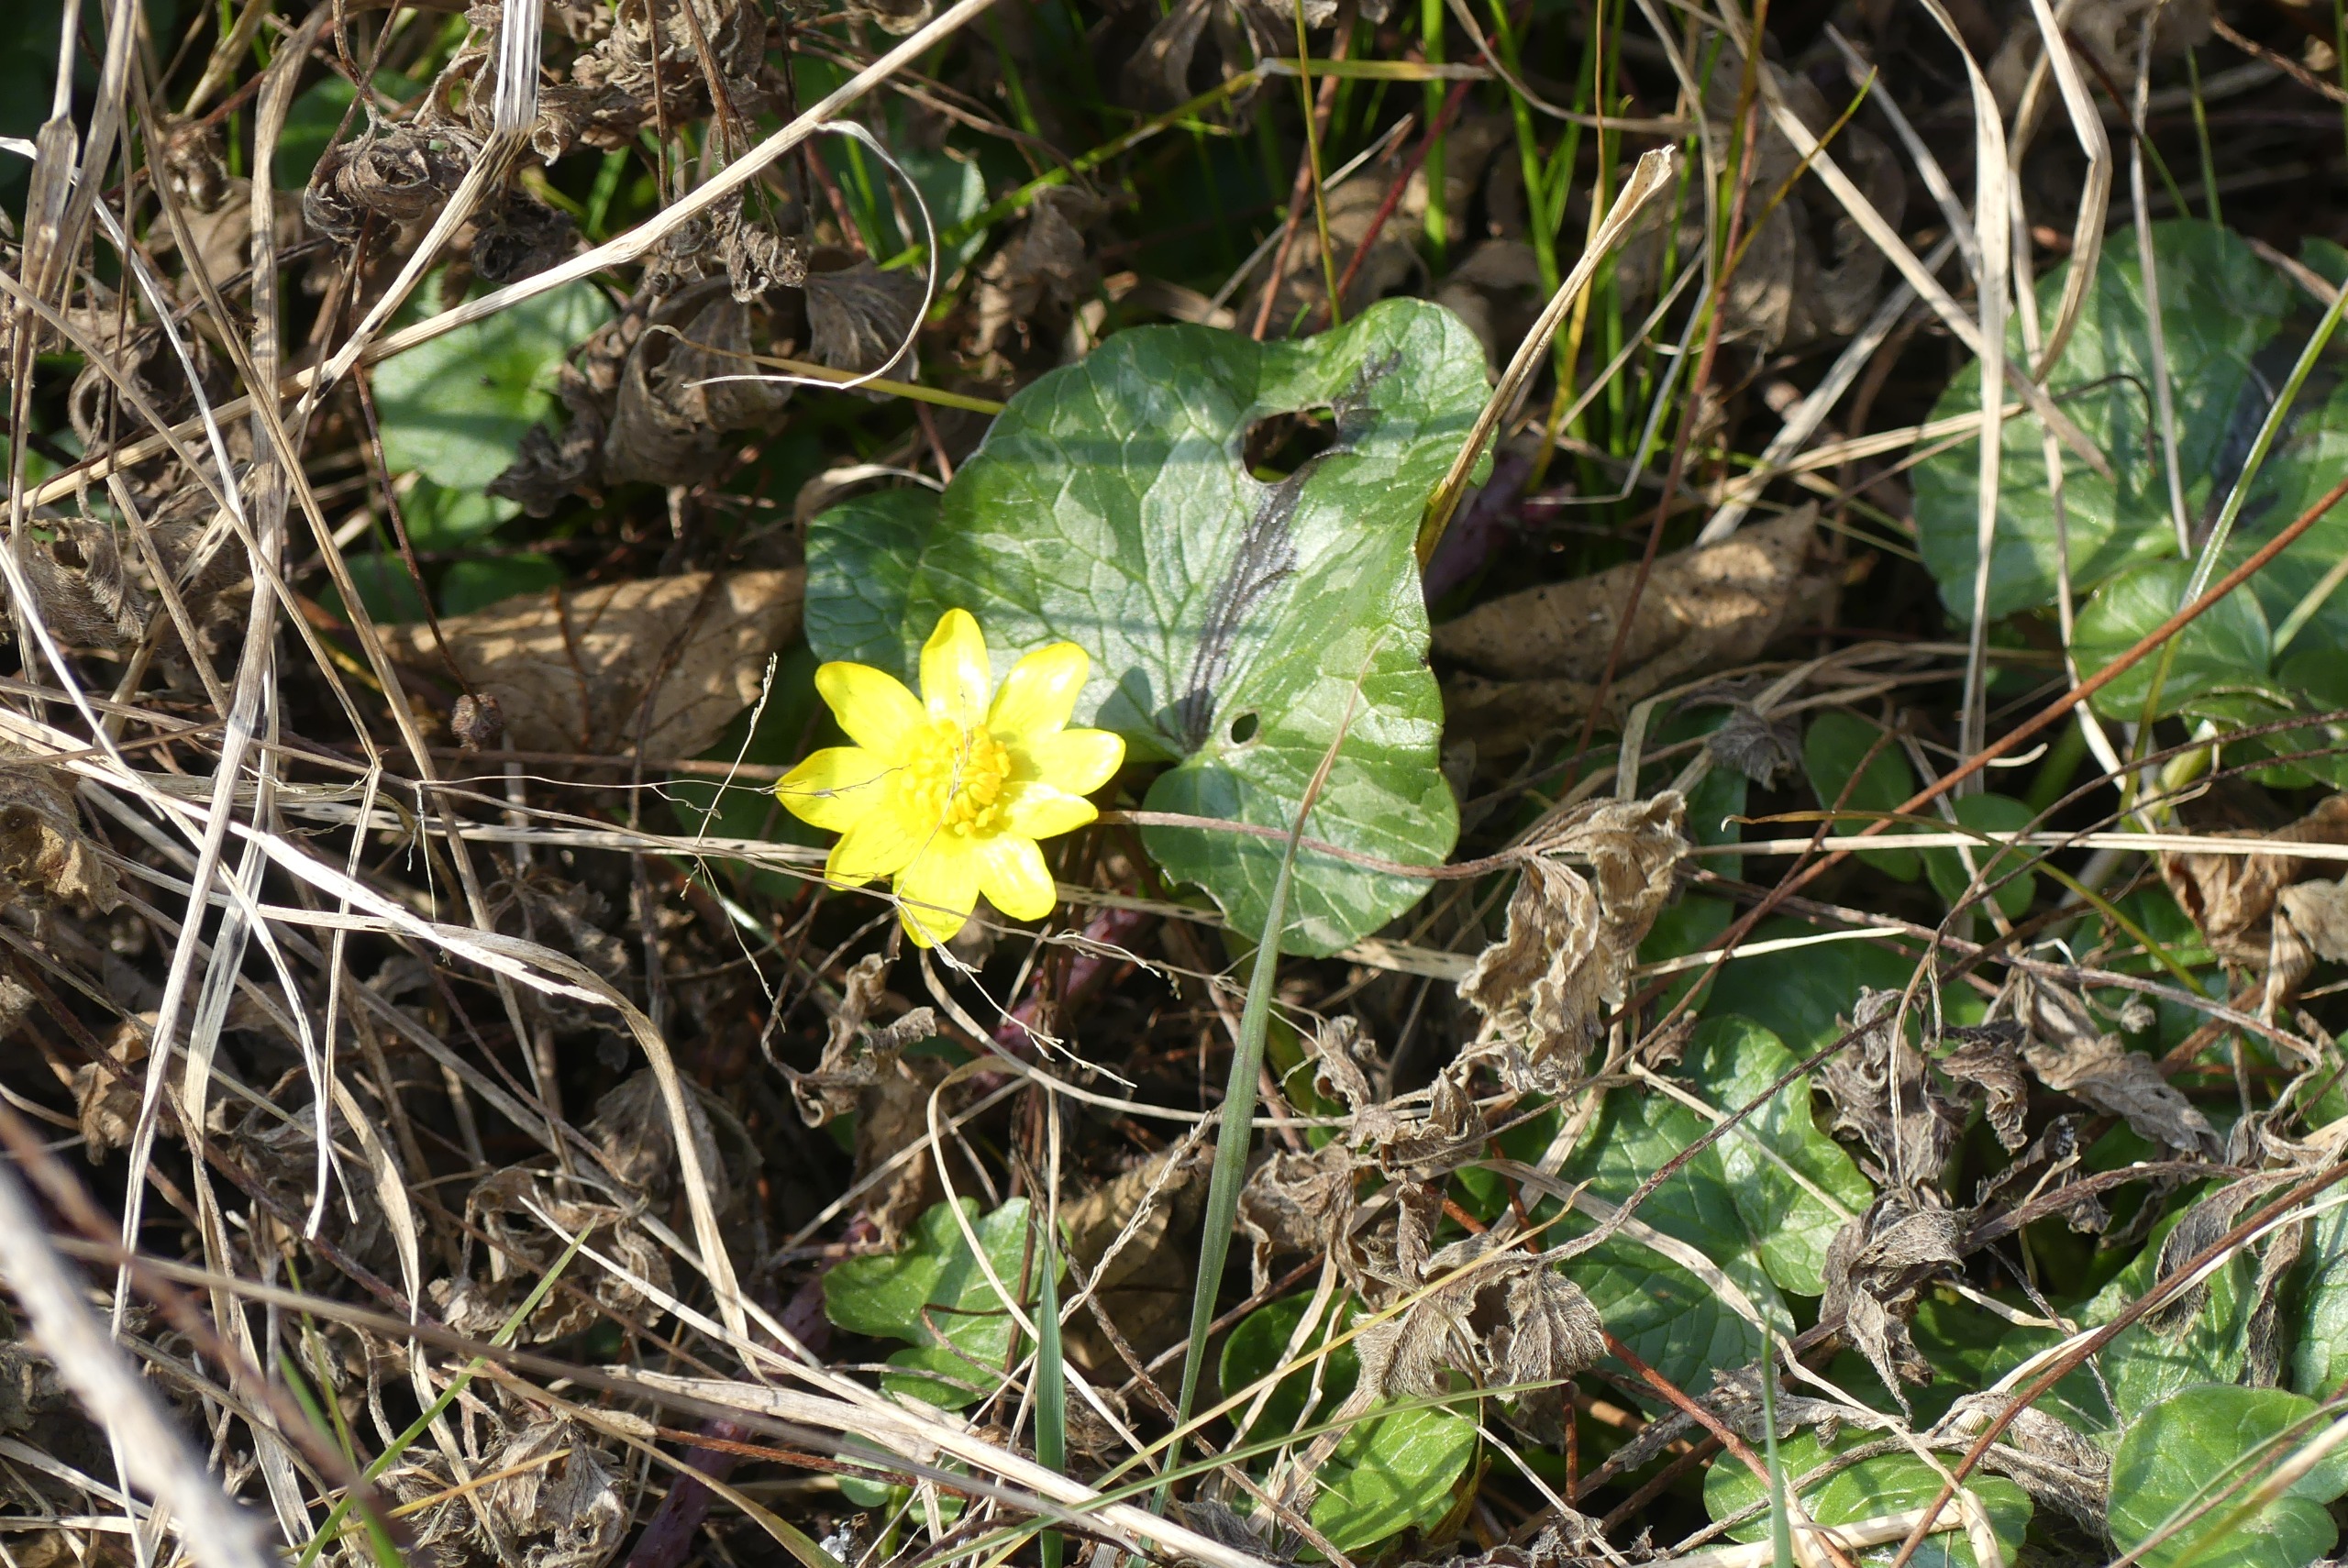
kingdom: Plantae
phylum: Tracheophyta
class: Magnoliopsida
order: Ranunculales
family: Ranunculaceae
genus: Ficaria
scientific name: Ficaria verna
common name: Vorterod
